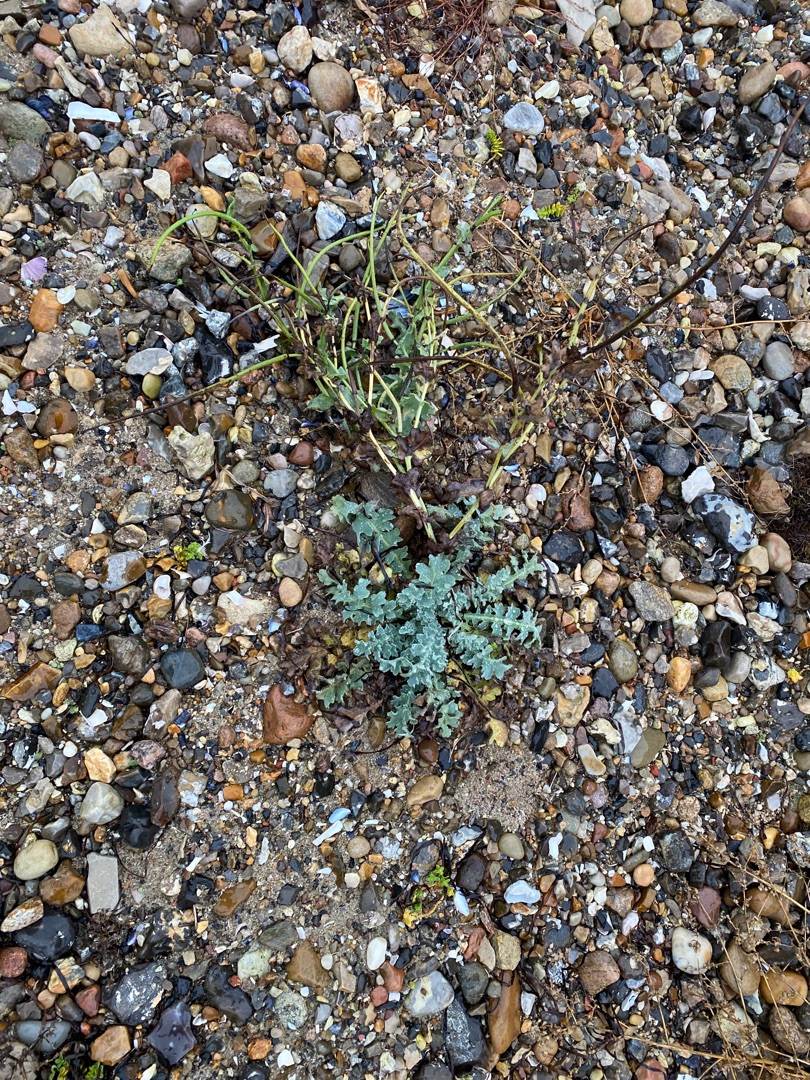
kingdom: Plantae
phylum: Tracheophyta
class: Magnoliopsida
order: Ranunculales
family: Papaveraceae
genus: Glaucium
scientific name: Glaucium flavum
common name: Hornskulpe
